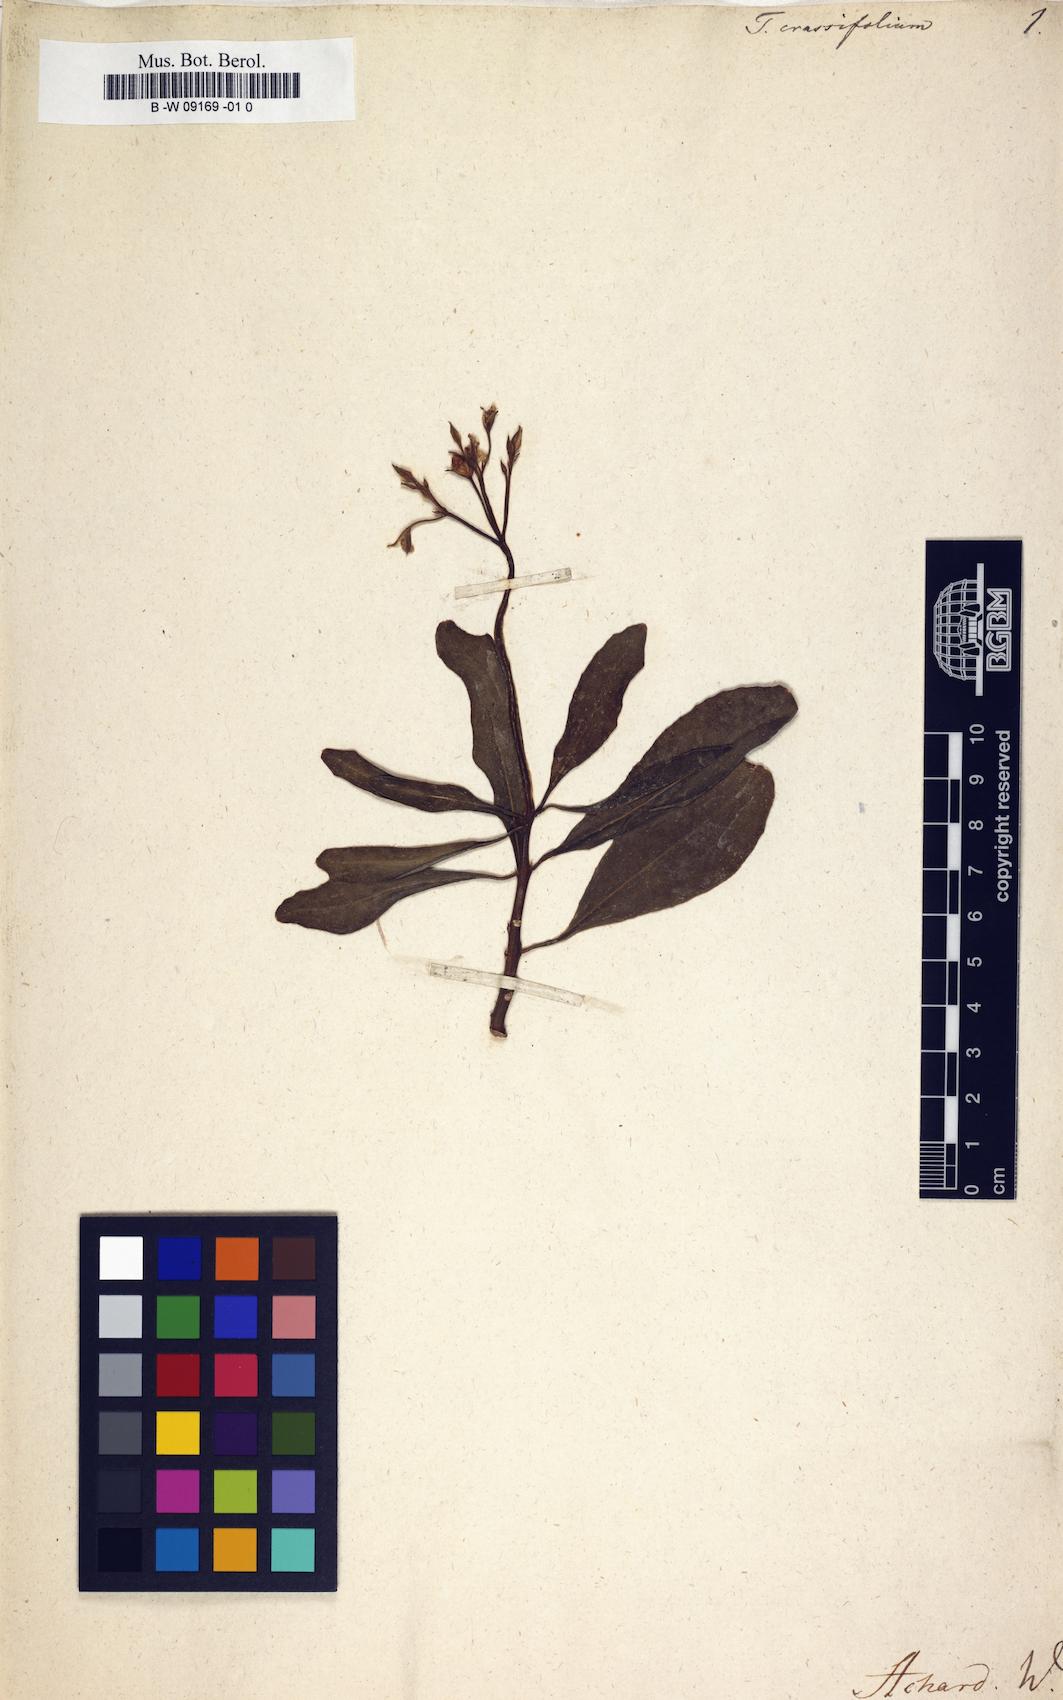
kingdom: Plantae
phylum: Tracheophyta
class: Magnoliopsida
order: Caryophyllales
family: Talinaceae
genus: Talinum
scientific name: Talinum fruticosum
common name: Verdolaga-francesa
